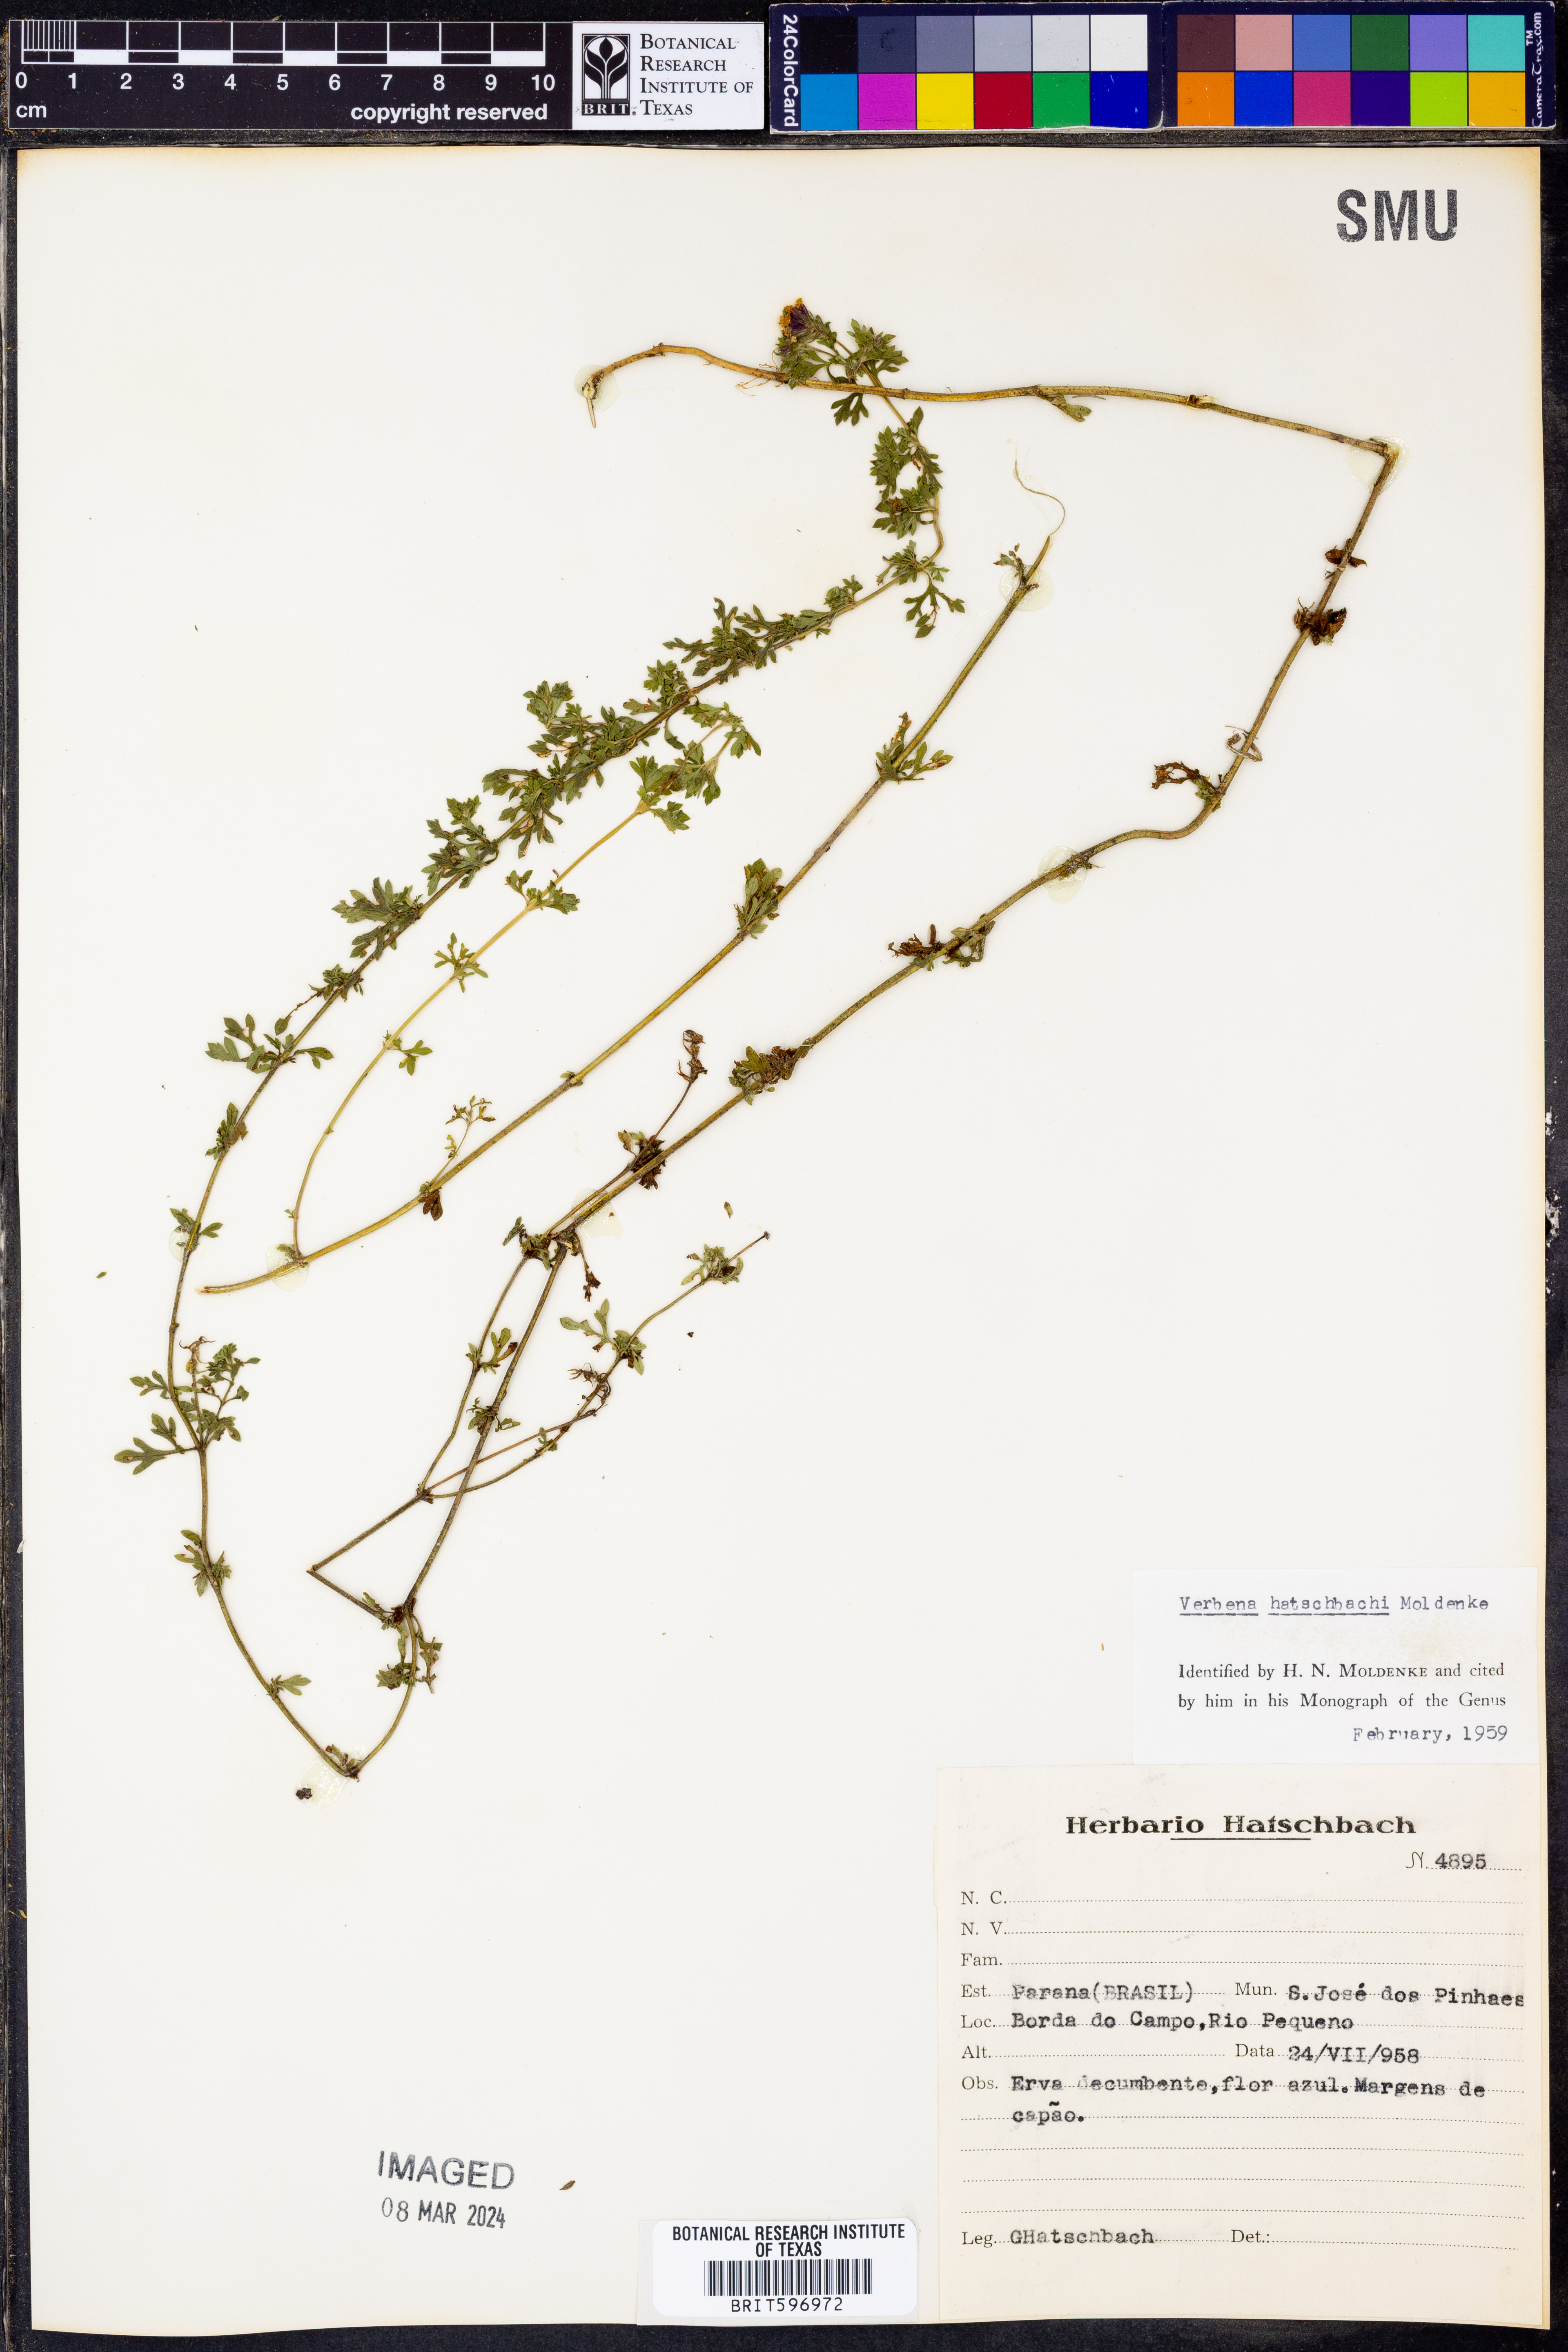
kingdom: Plantae
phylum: Tracheophyta
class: Magnoliopsida
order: Lamiales
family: Verbenaceae
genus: Verbena
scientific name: Verbena
